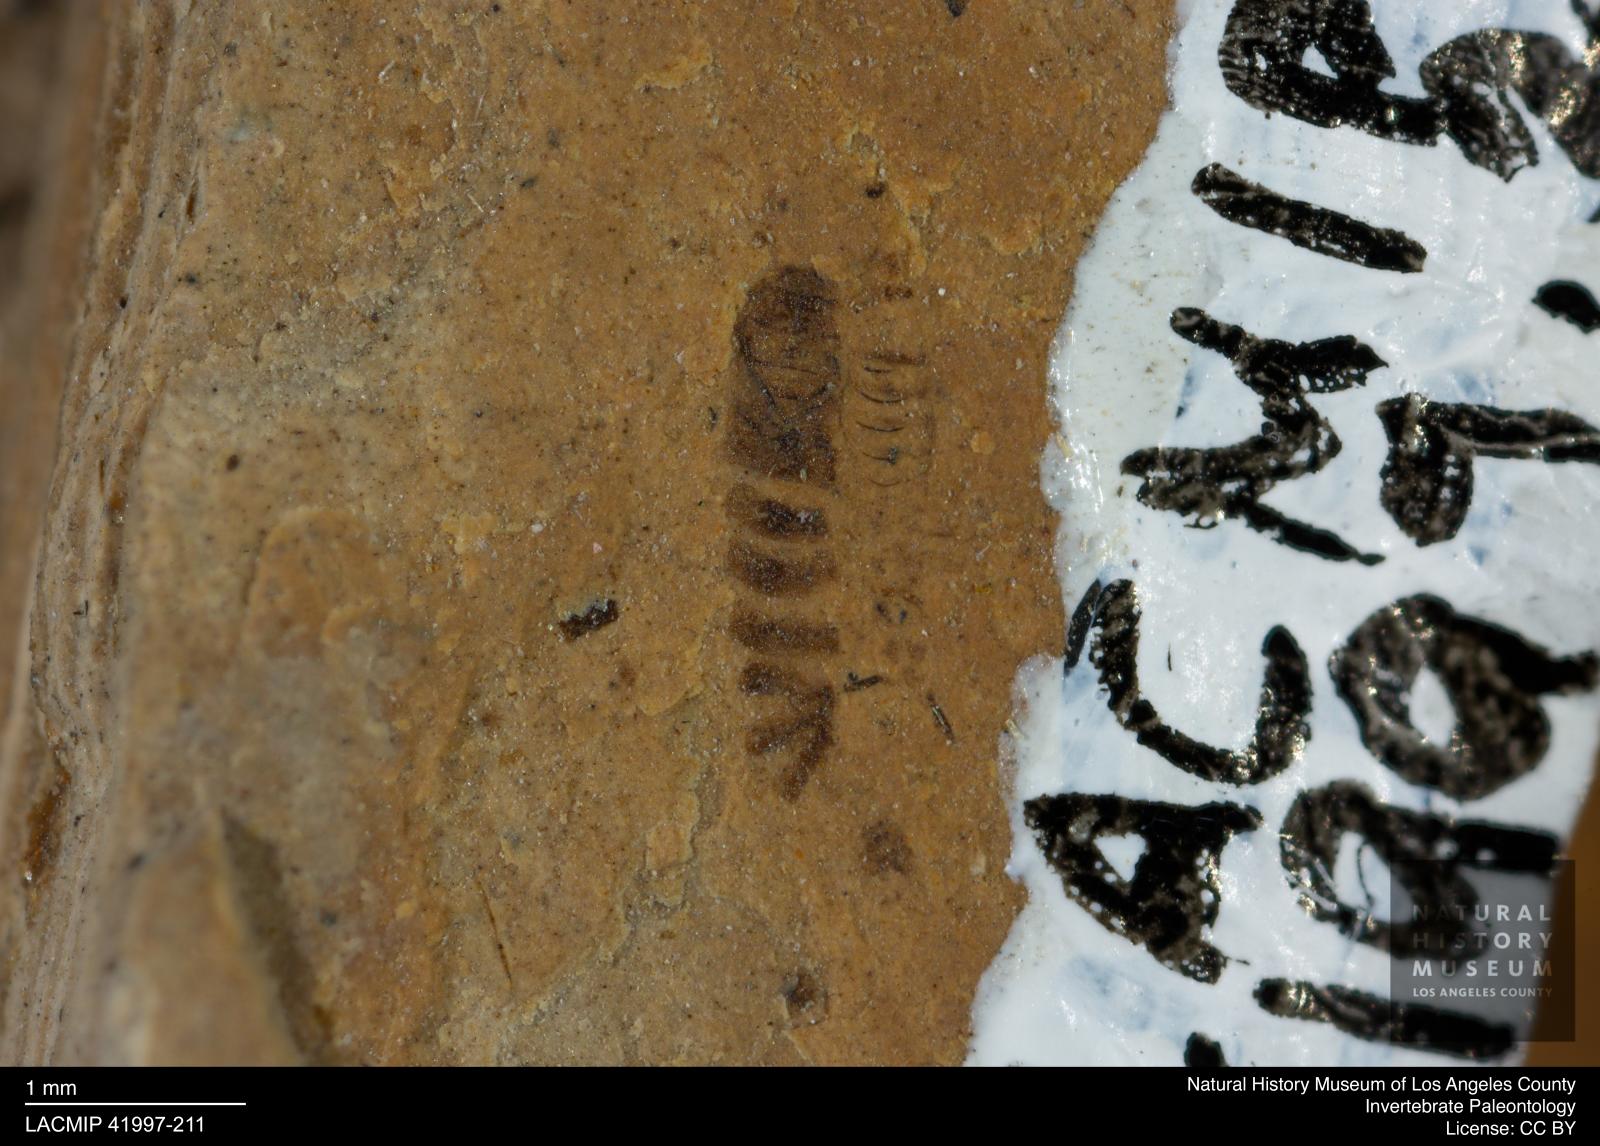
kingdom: Animalia
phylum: Arthropoda
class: Insecta
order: Diptera
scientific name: Diptera
